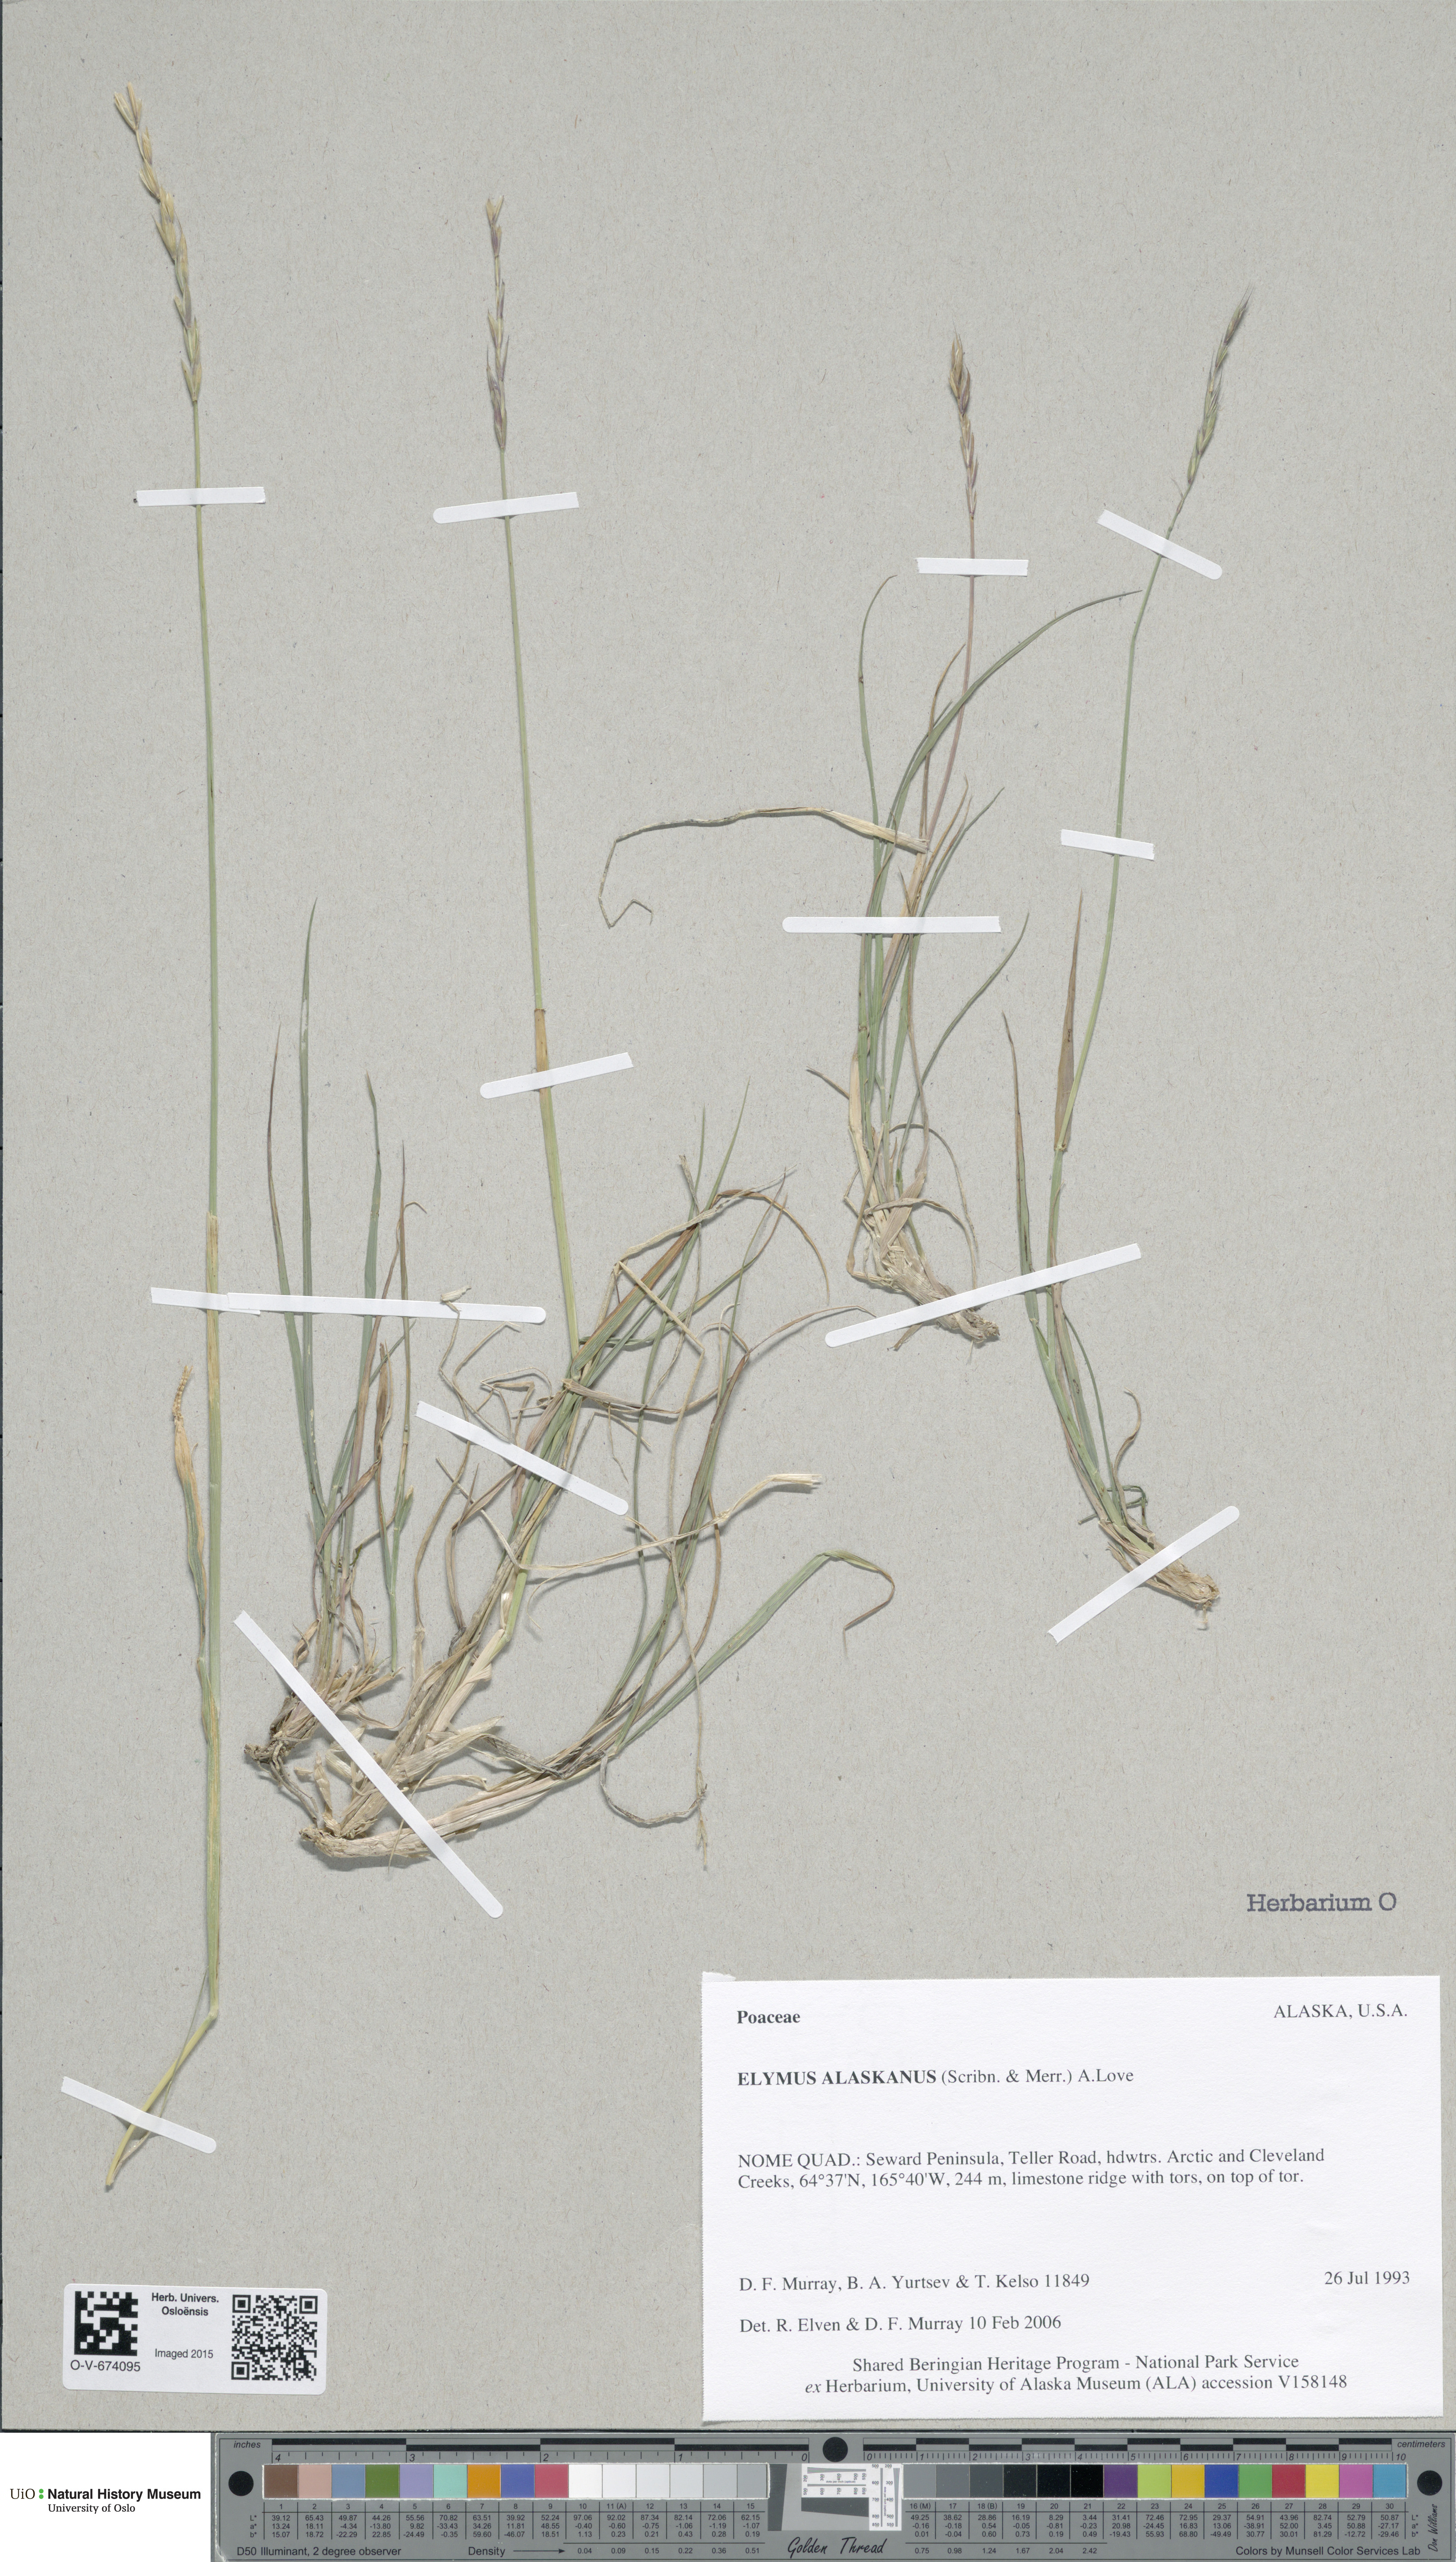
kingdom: Plantae
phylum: Tracheophyta
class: Liliopsida
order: Poales
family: Poaceae
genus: Elymus
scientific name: Elymus alaskanus
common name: Alaska wheatgrass
